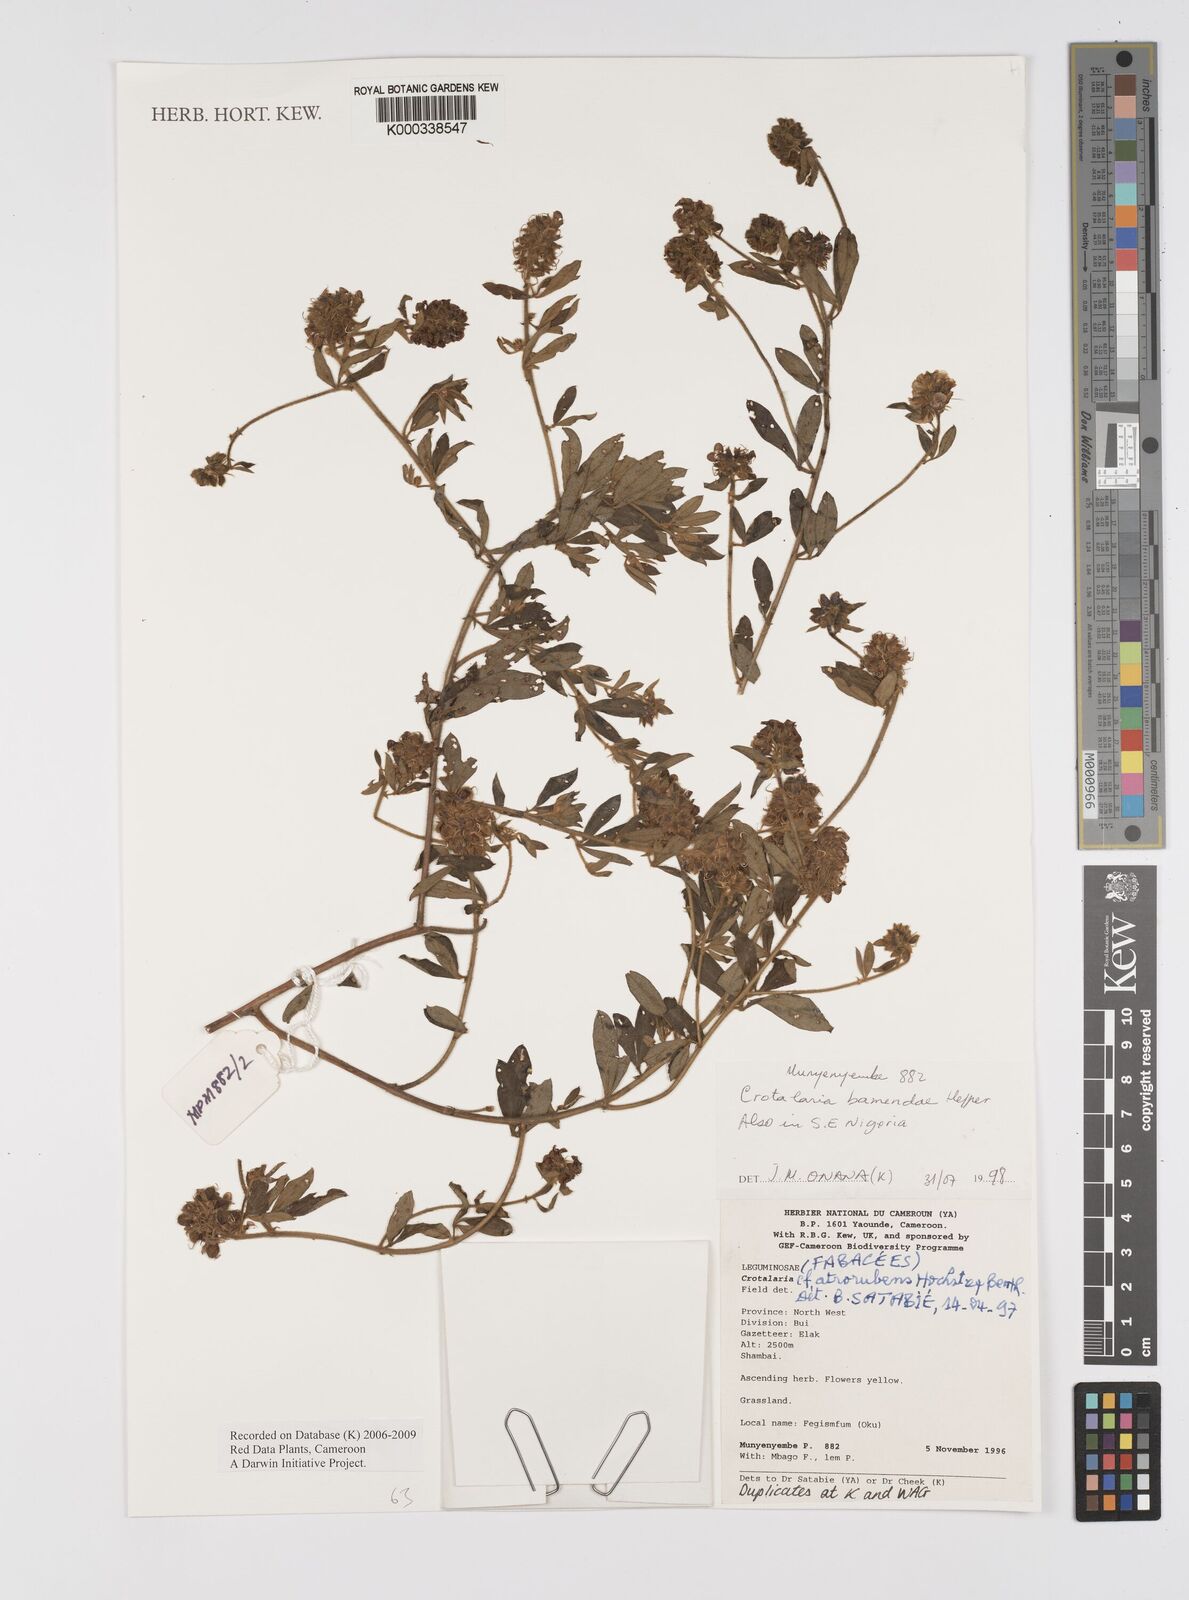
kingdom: Plantae
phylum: Tracheophyta
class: Magnoliopsida
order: Fabales
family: Fabaceae
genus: Crotalaria
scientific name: Crotalaria bamendae
